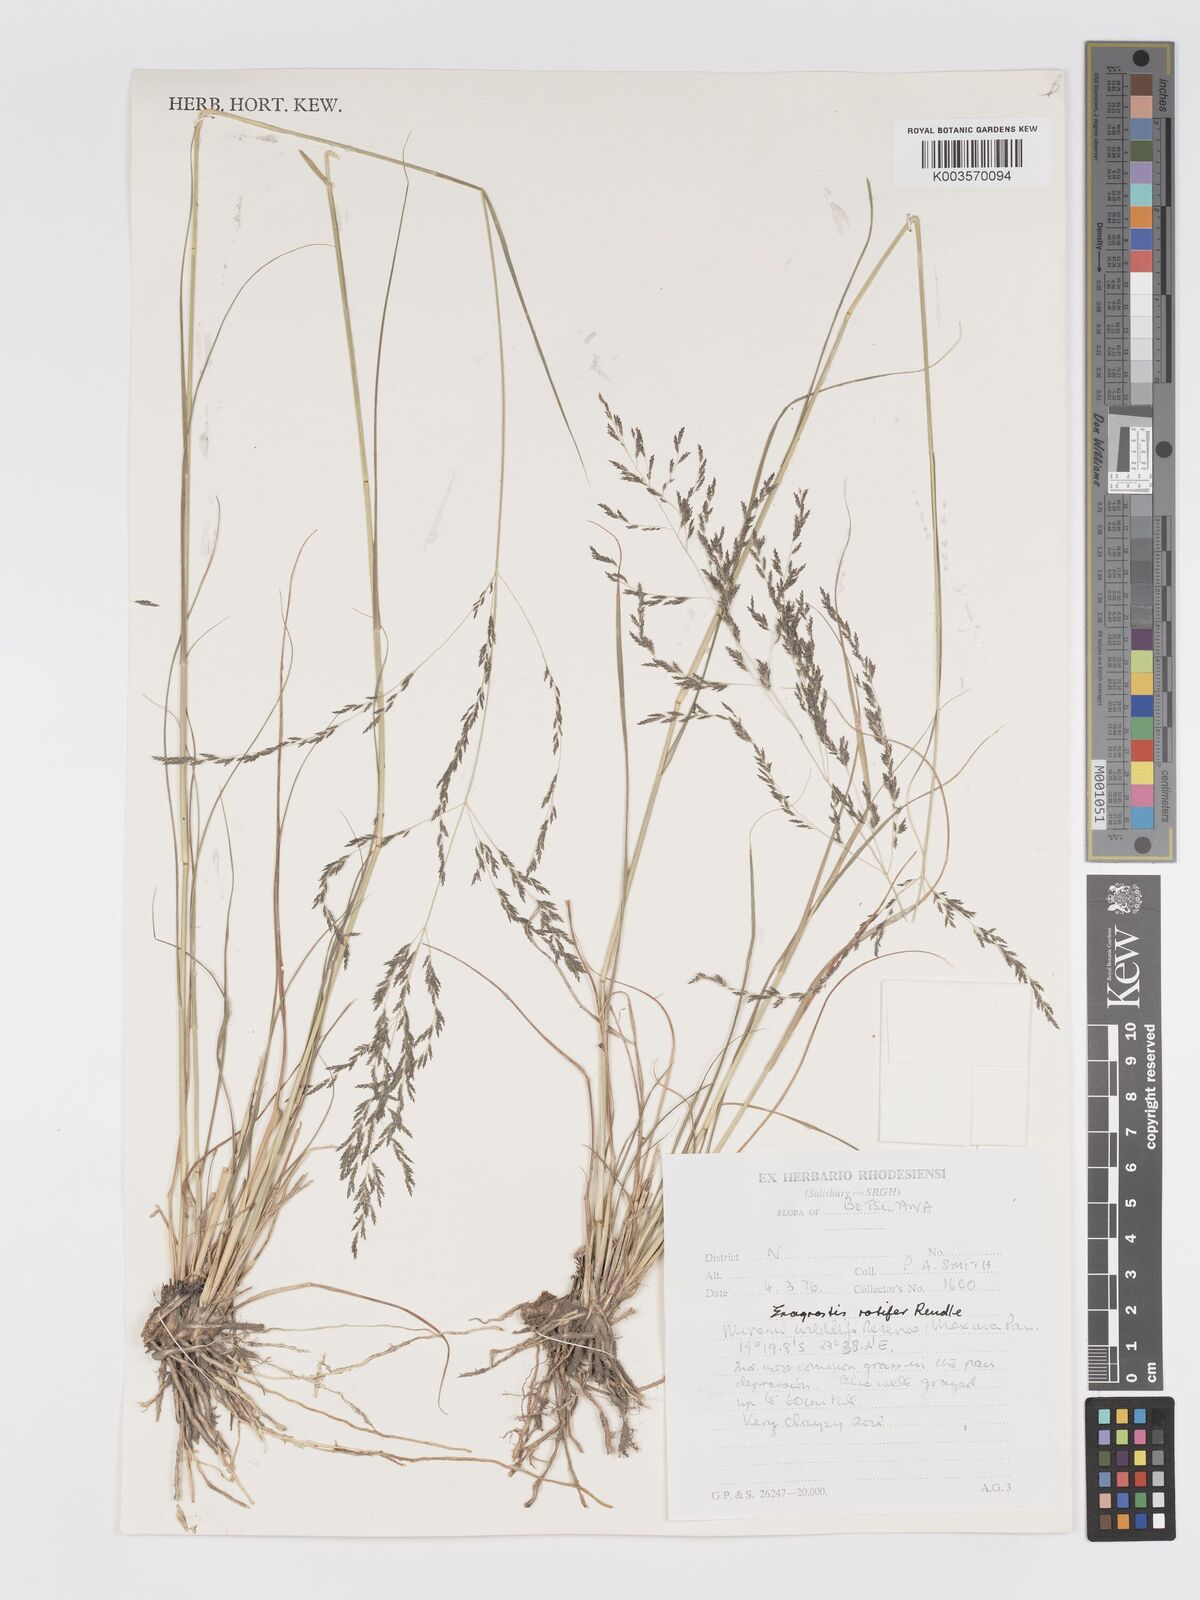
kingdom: Plantae
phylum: Tracheophyta
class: Liliopsida
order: Poales
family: Poaceae
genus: Eragrostis
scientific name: Eragrostis rotifer
